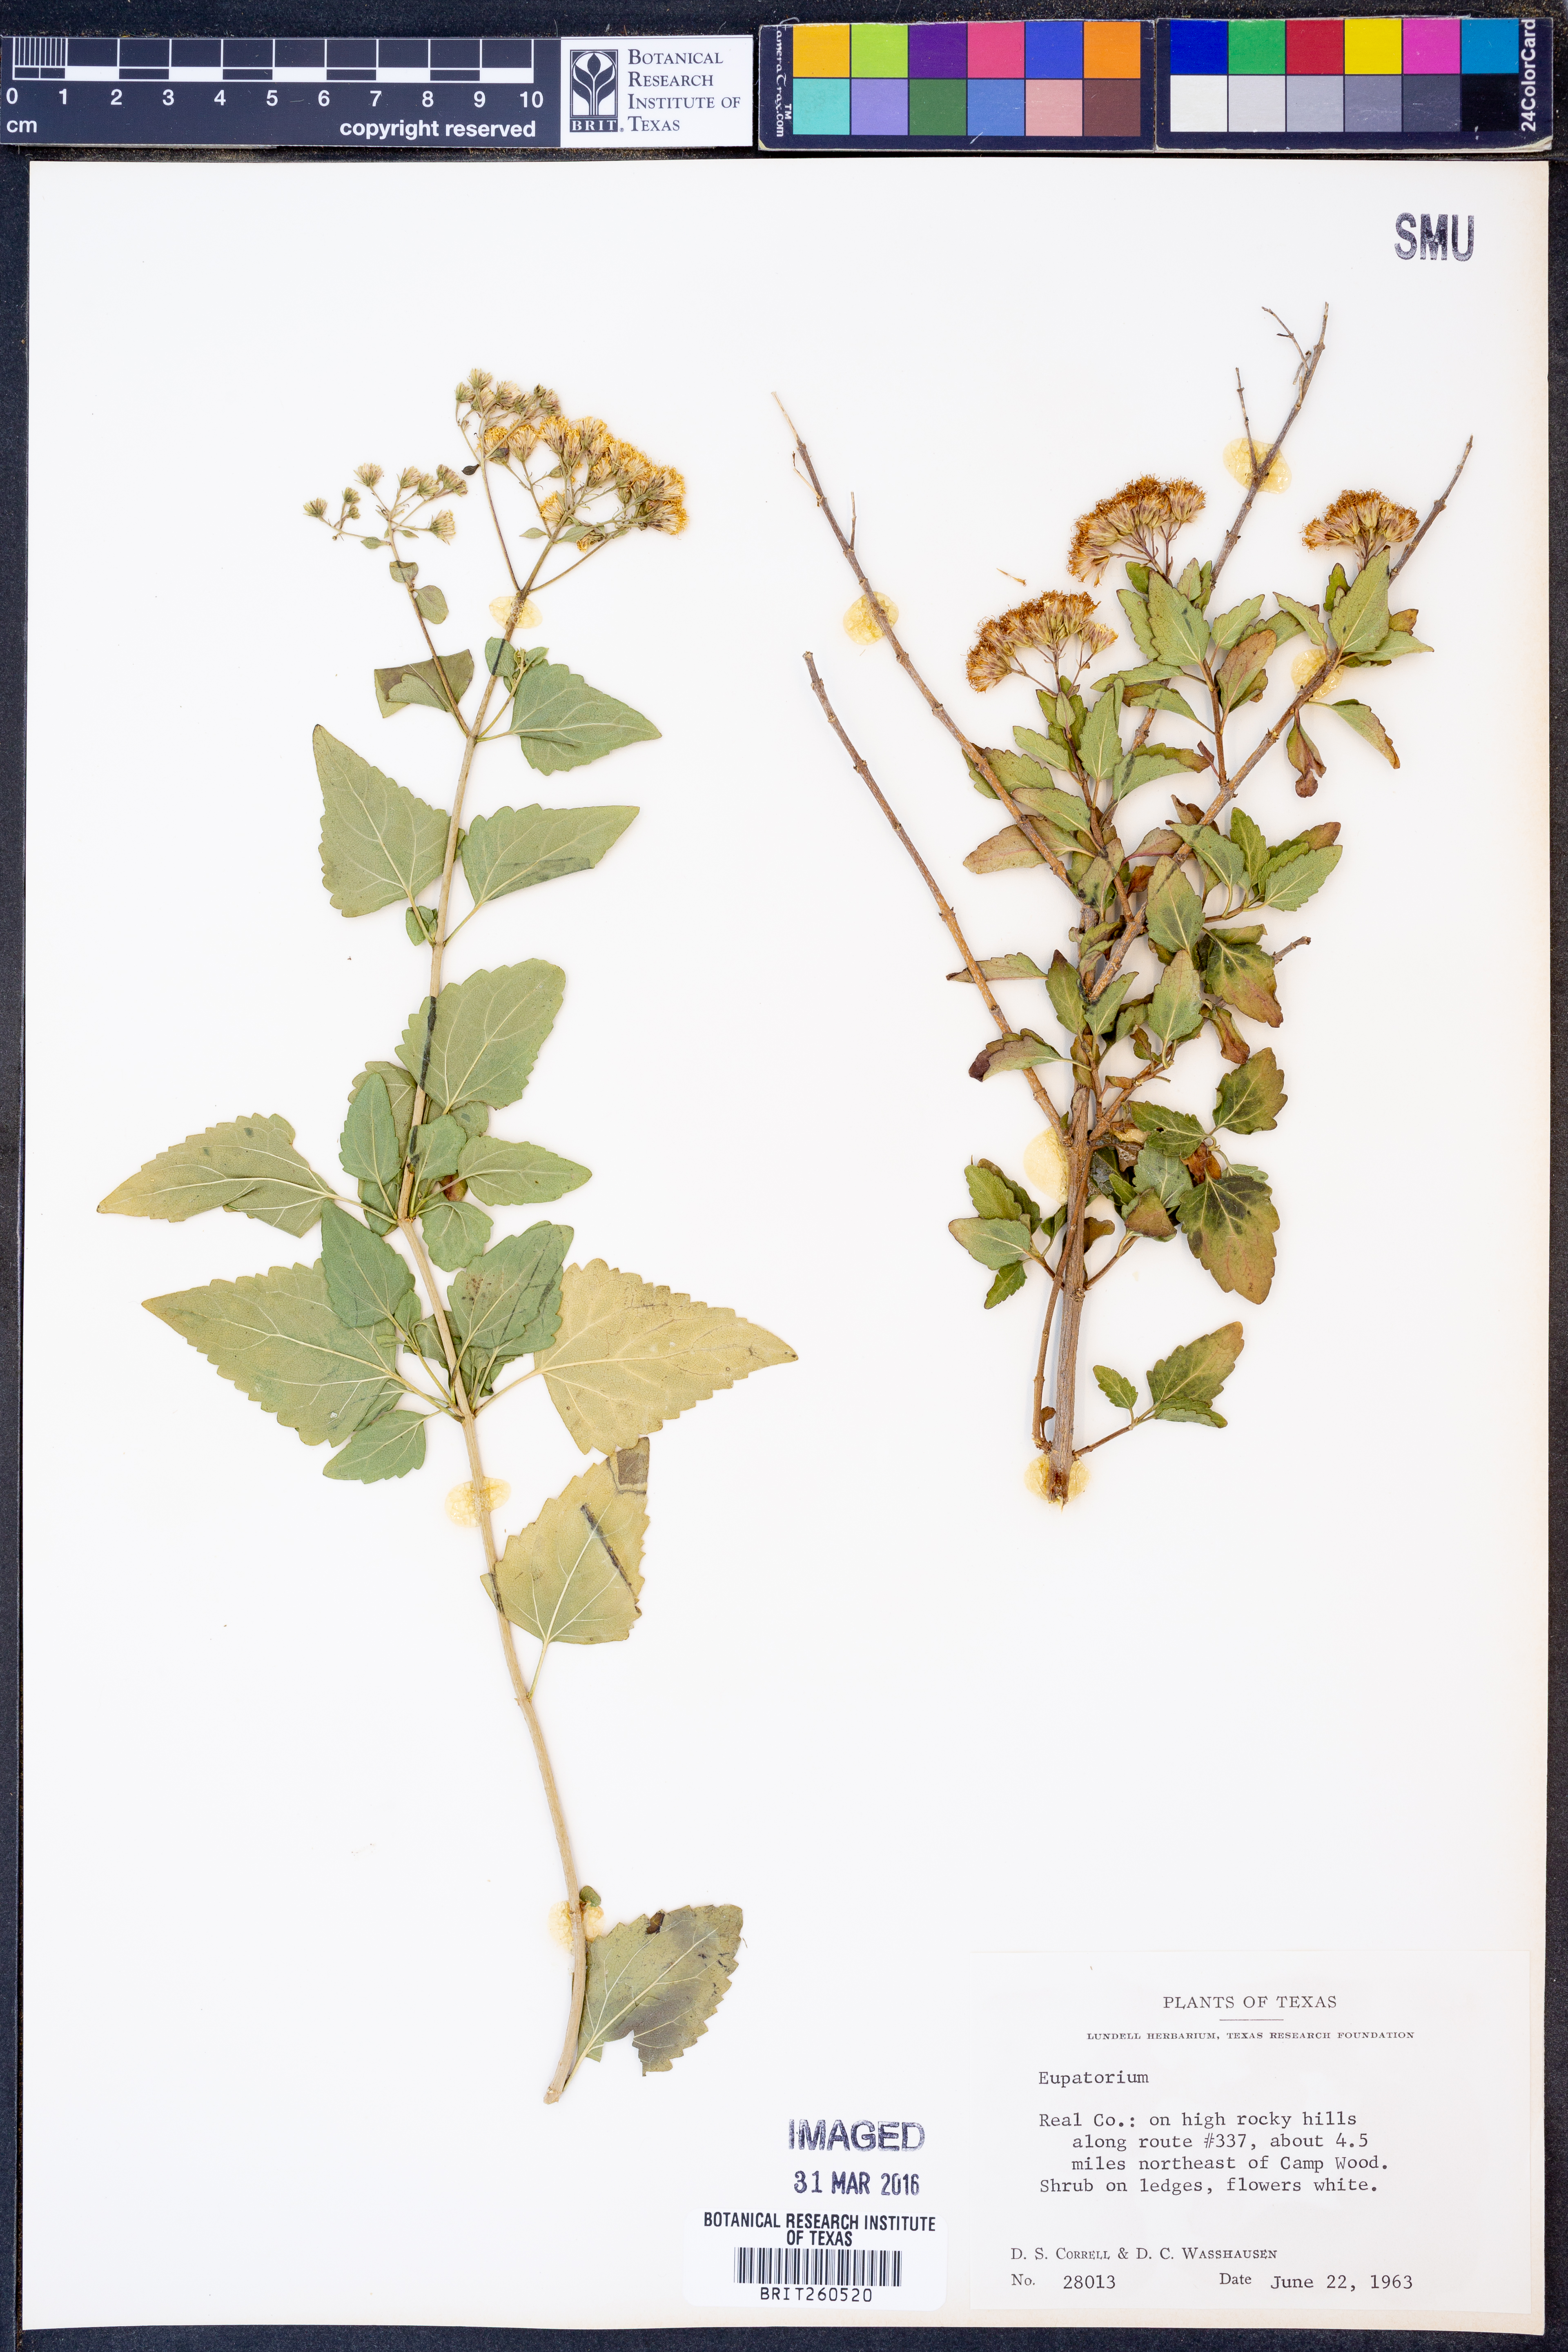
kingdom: Plantae
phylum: Tracheophyta
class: Magnoliopsida
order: Asterales
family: Asteraceae
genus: Eupatorium
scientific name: Eupatorium
